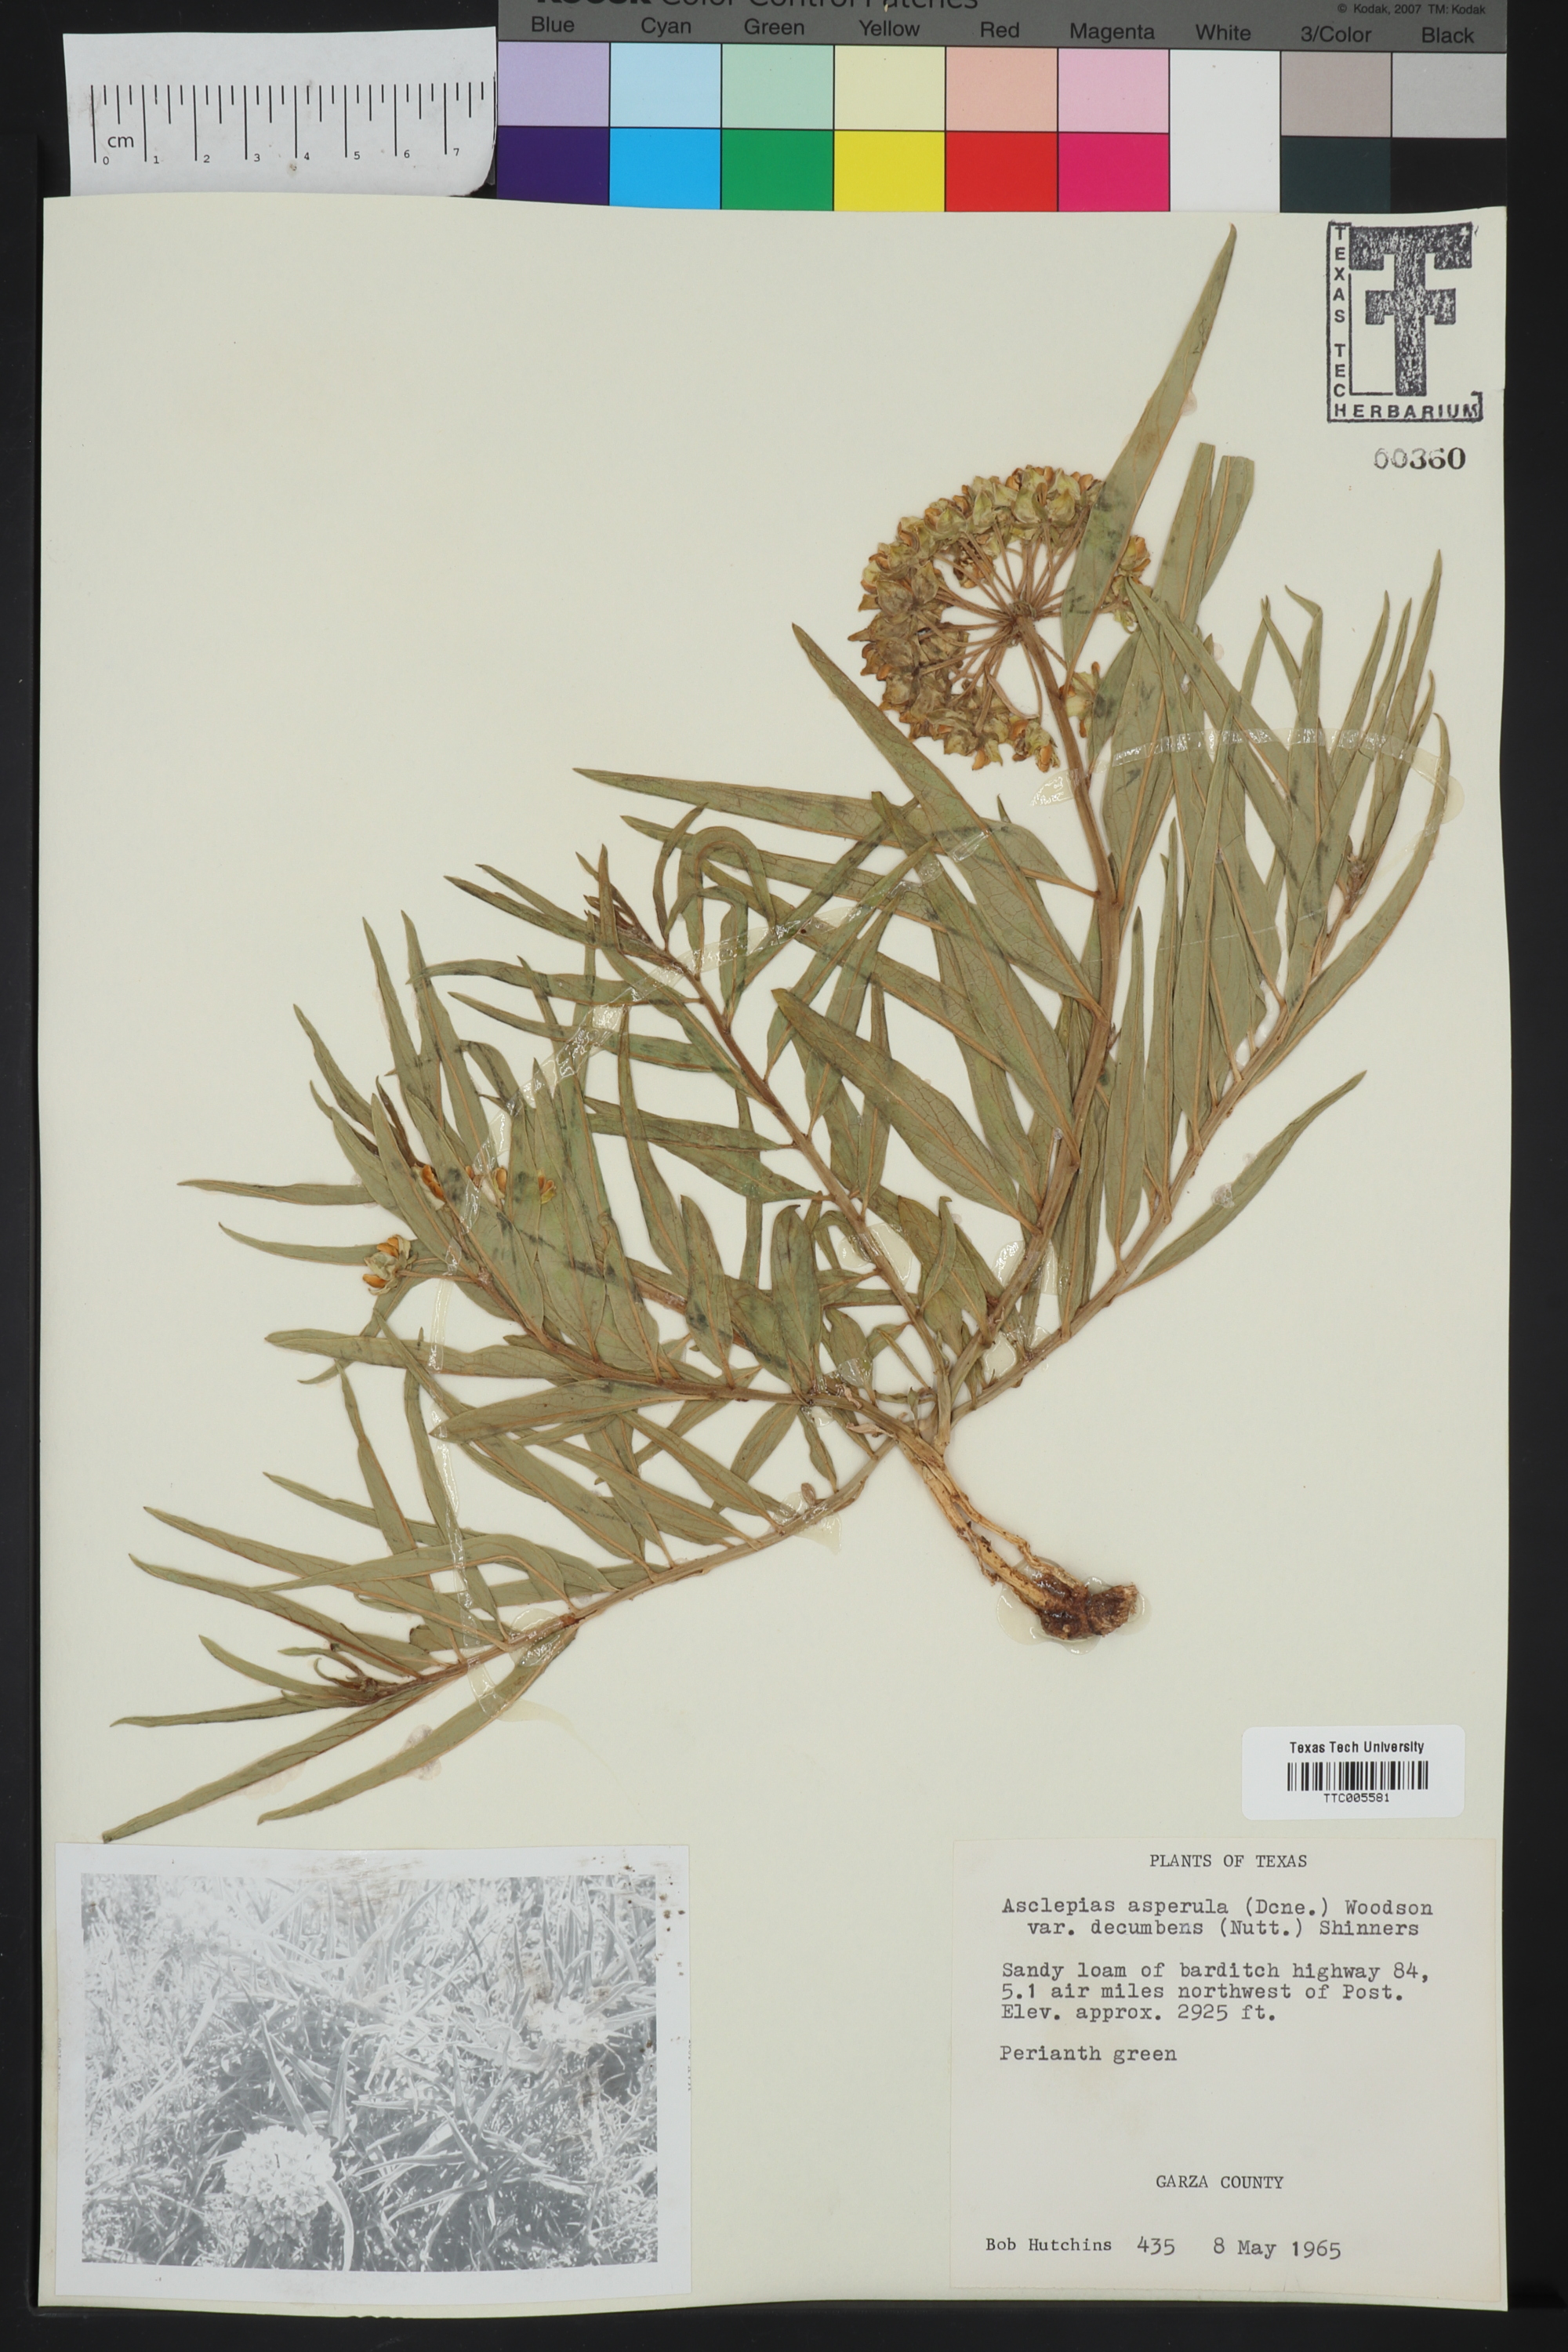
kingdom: Plantae
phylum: Tracheophyta
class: Magnoliopsida
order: Gentianales
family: Apocynaceae
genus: Asclepias
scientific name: Asclepias asperula
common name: Antelope horns
